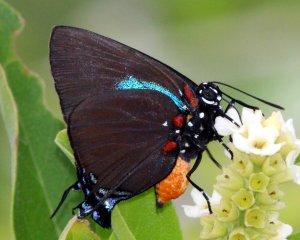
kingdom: Animalia
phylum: Arthropoda
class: Insecta
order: Lepidoptera
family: Lycaenidae
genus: Atlides
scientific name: Atlides halesus
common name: Great Purple Hairstreak
